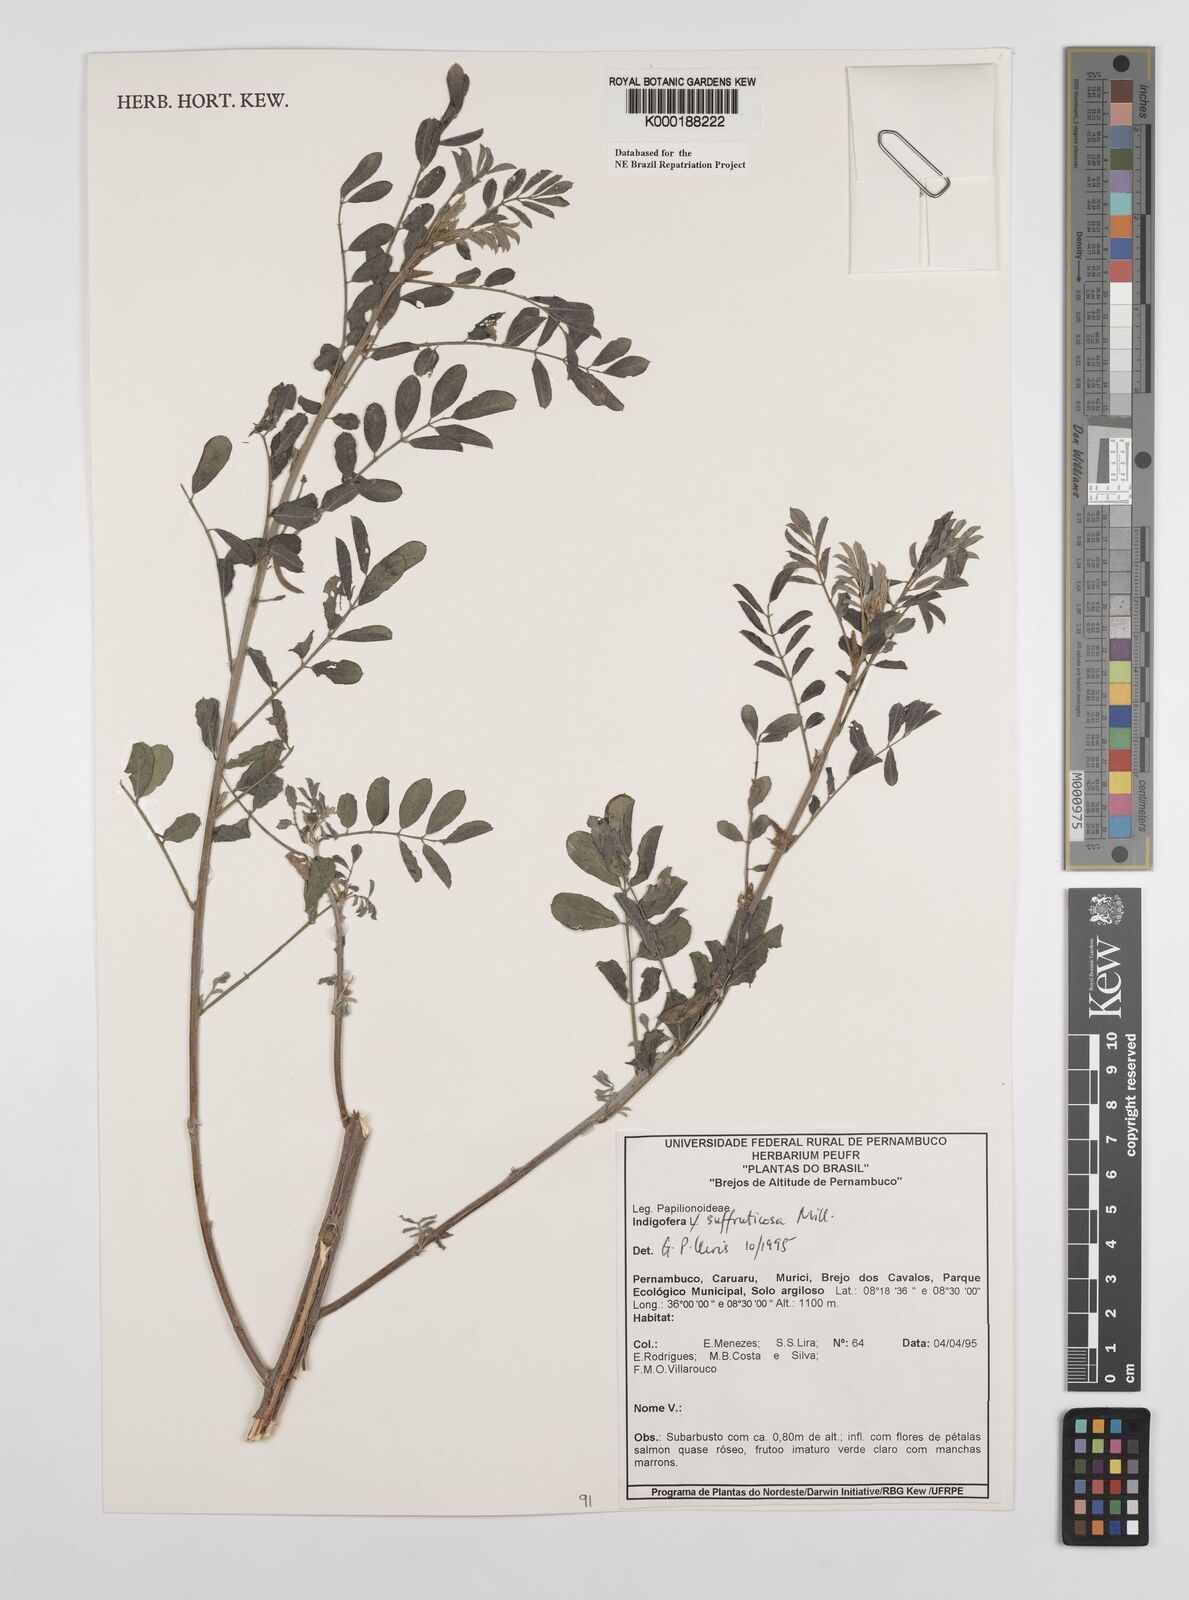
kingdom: Plantae
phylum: Tracheophyta
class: Magnoliopsida
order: Fabales
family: Fabaceae
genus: Indigofera
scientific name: Indigofera suffruticosa
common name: Anil de pasto
